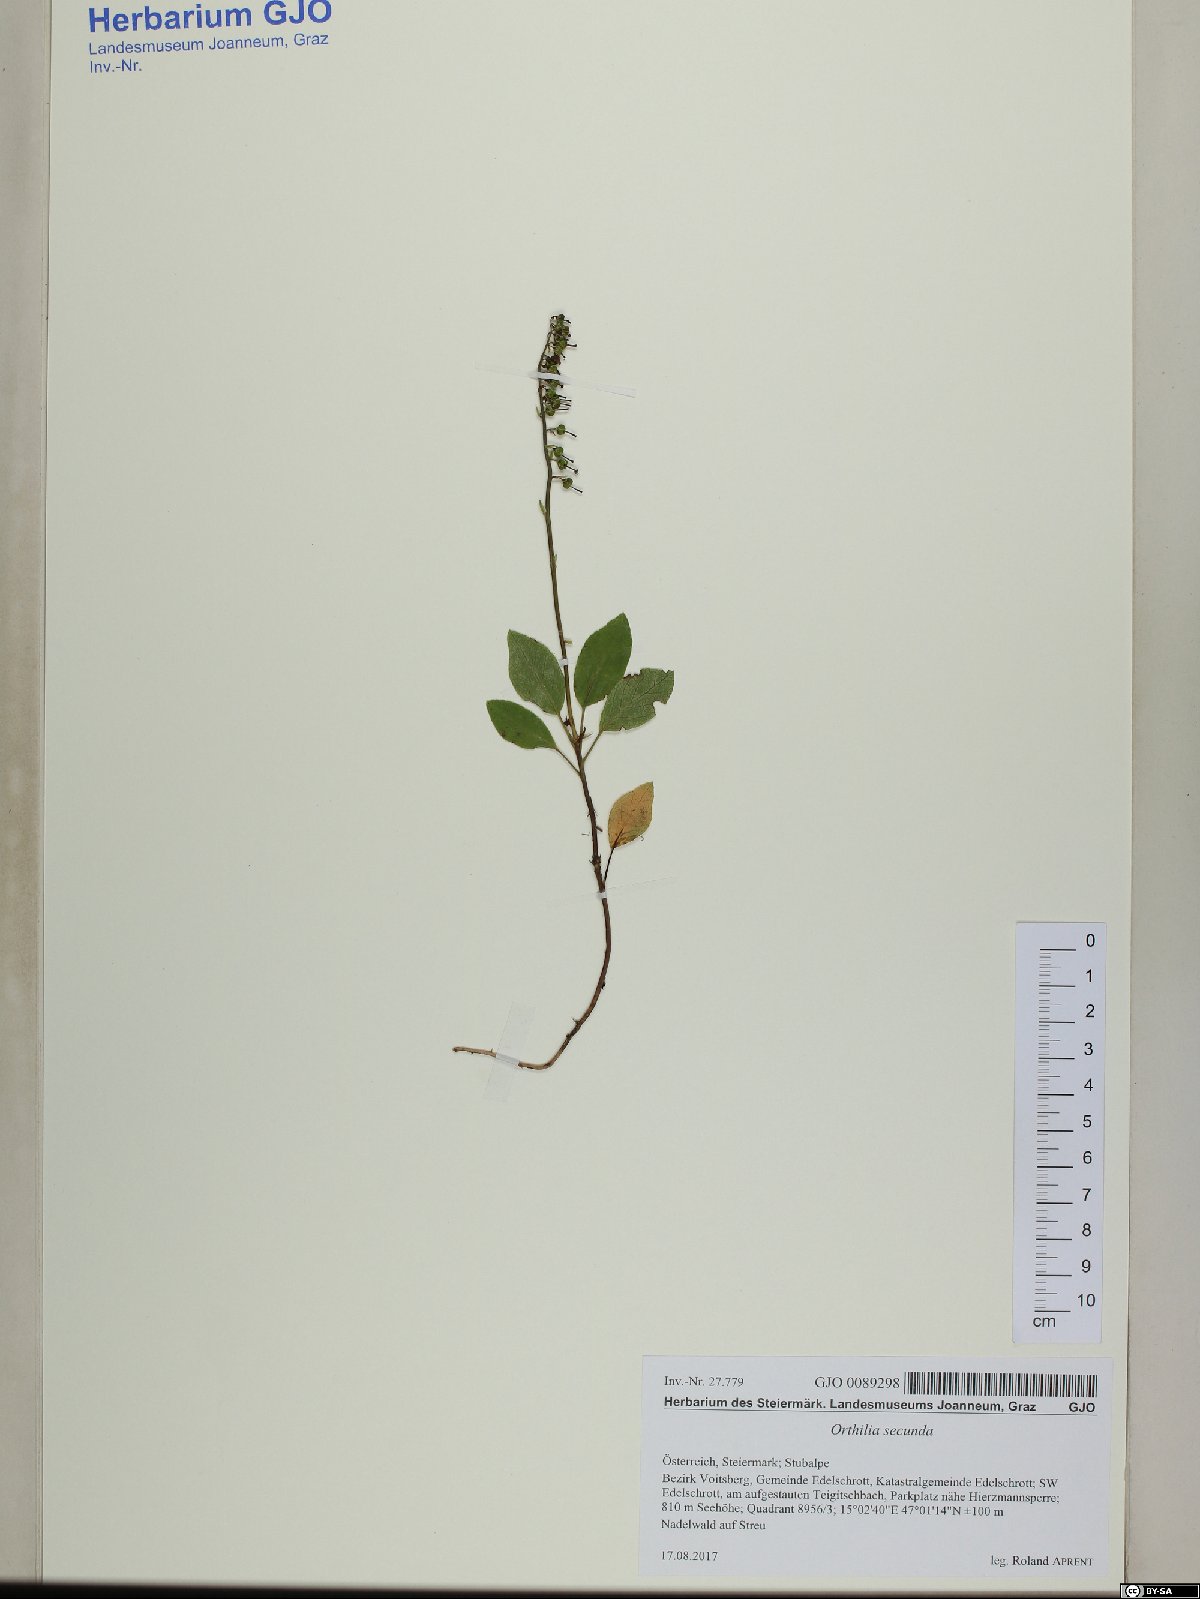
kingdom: Plantae
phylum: Tracheophyta
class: Magnoliopsida
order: Ericales
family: Ericaceae
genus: Orthilia
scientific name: Orthilia secunda
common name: One-sided orthilia
